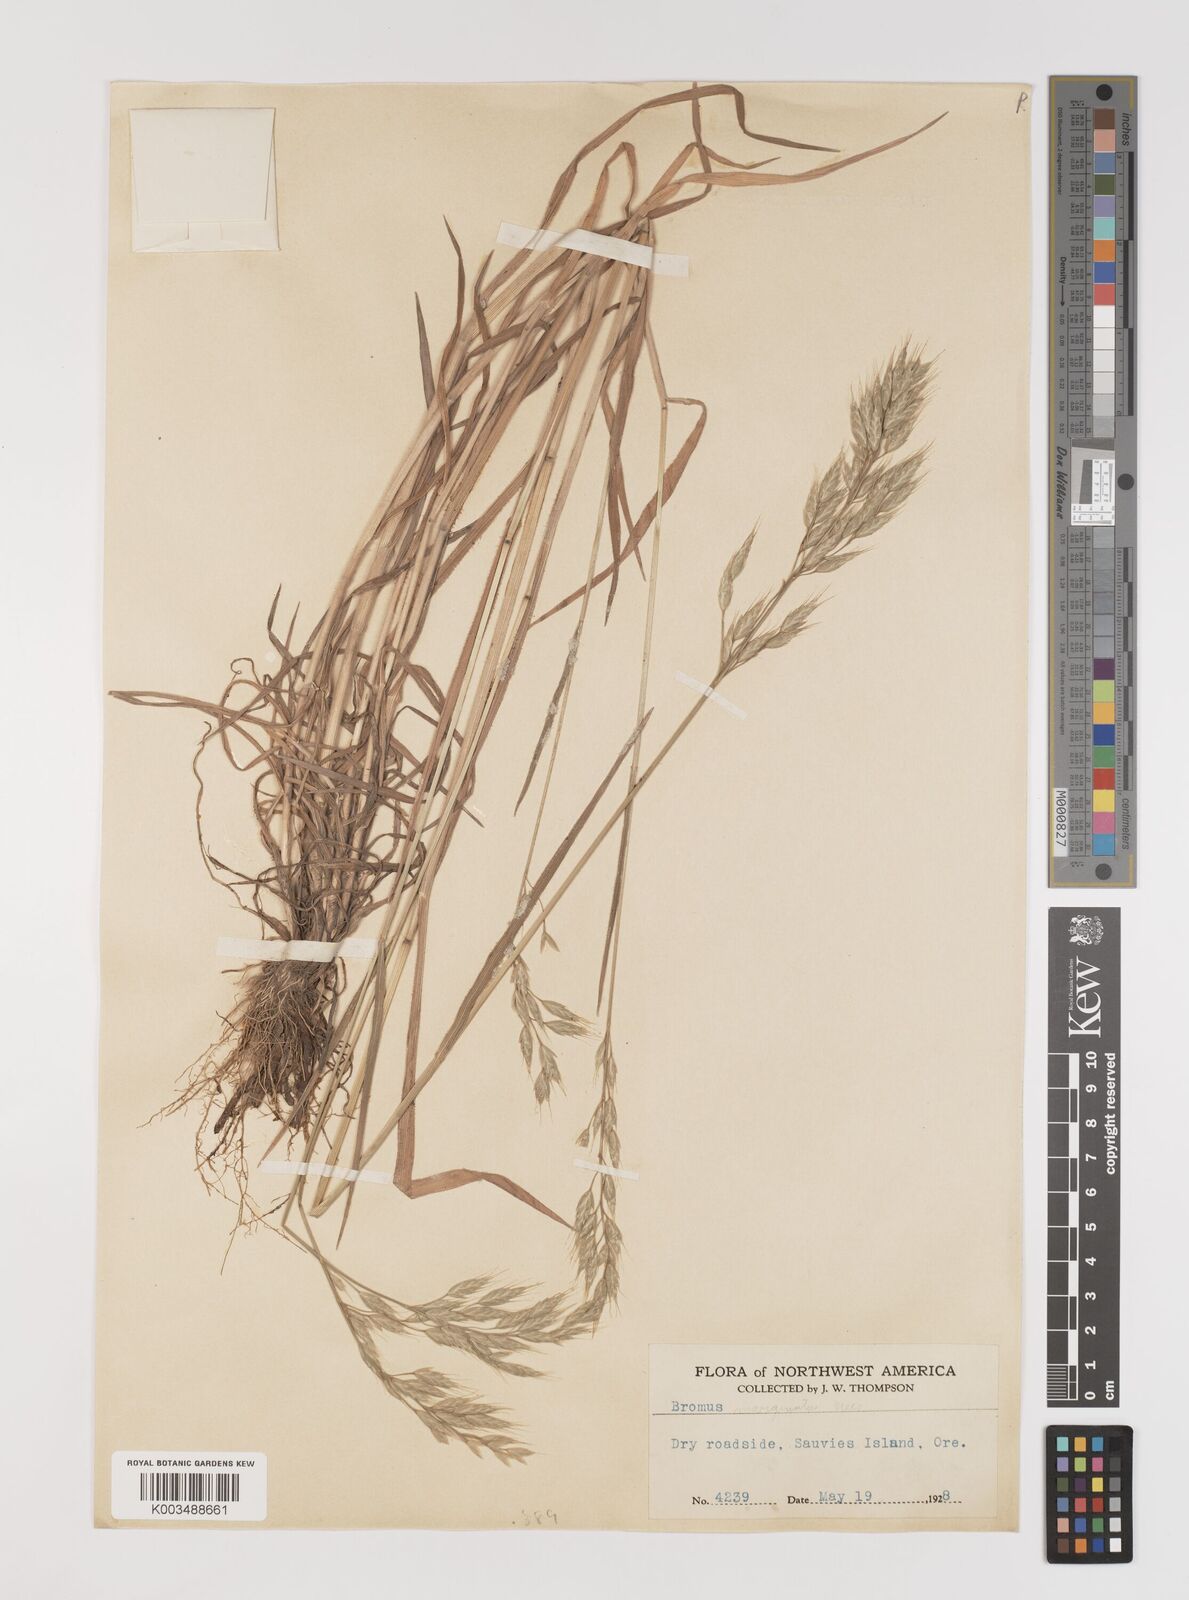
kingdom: Plantae
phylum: Tracheophyta
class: Liliopsida
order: Poales
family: Poaceae
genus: Bromus
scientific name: Bromus hordeaceus
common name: Soft brome
